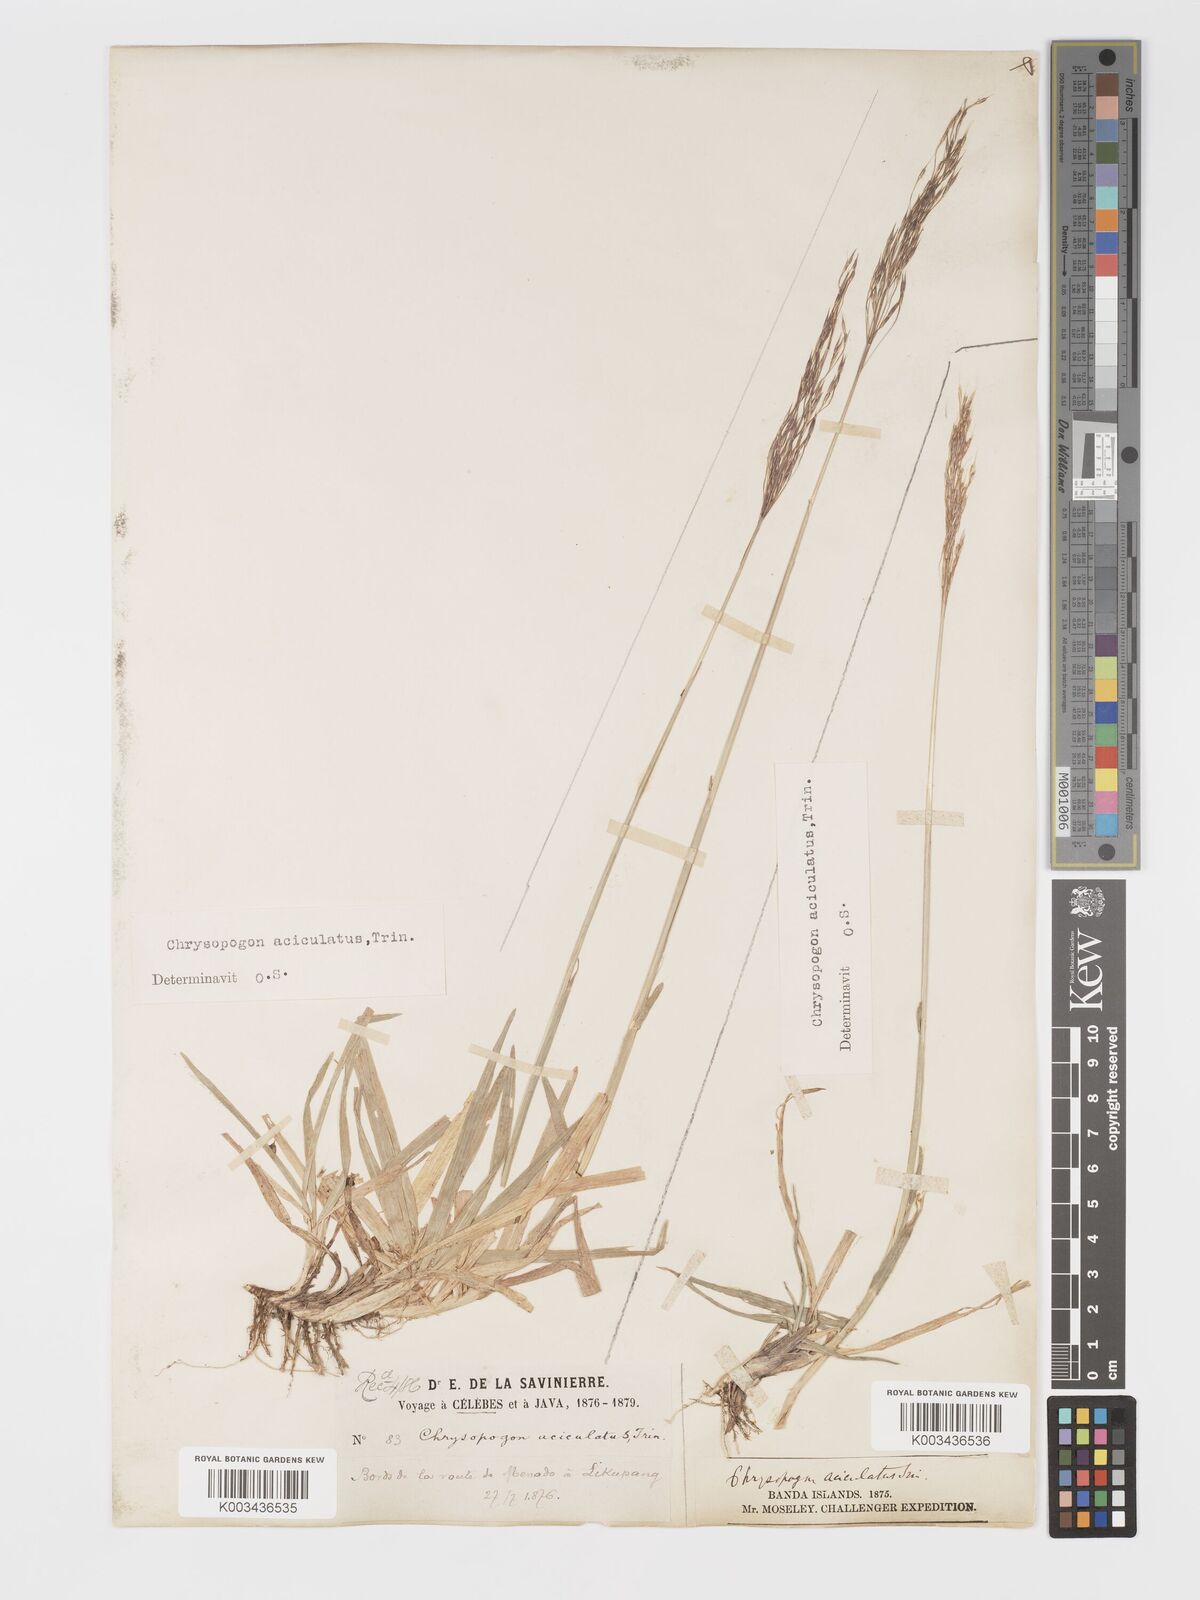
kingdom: Plantae
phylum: Tracheophyta
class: Liliopsida
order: Poales
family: Poaceae
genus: Chrysopogon
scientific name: Chrysopogon aciculatus
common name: Pilipiliula
